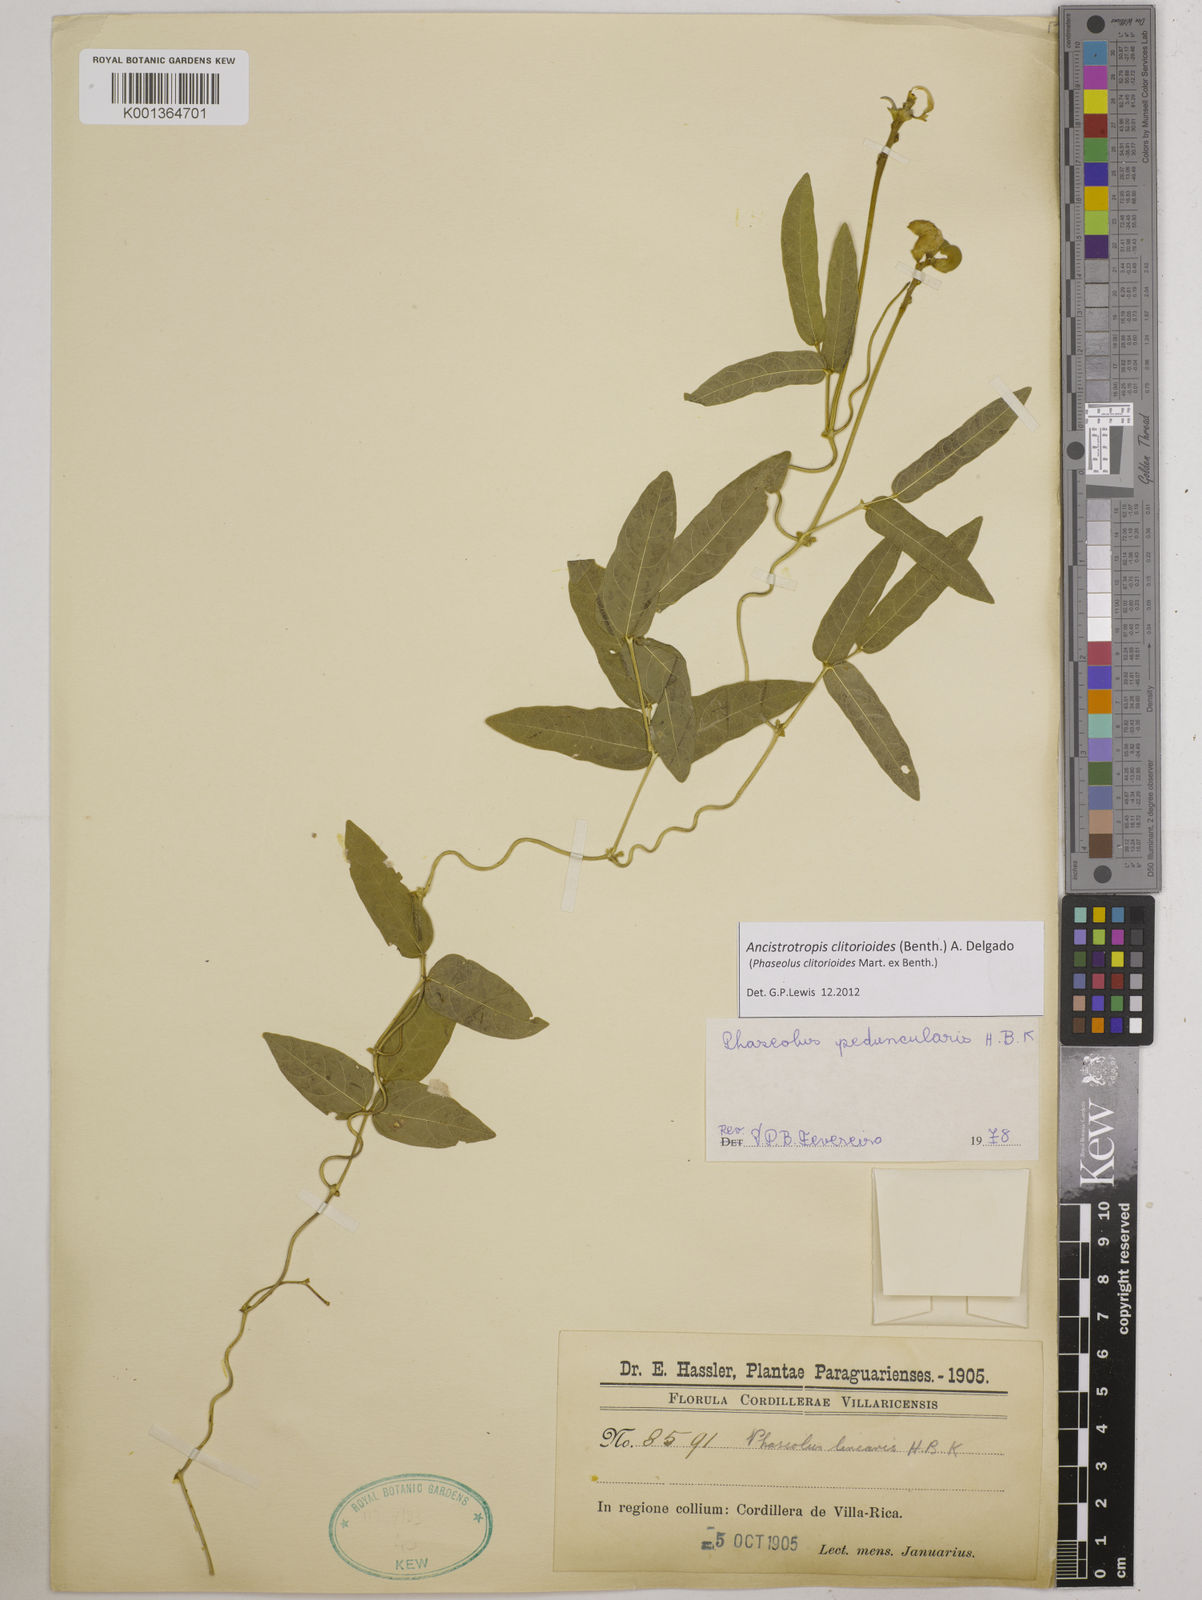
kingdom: Plantae
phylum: Tracheophyta
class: Magnoliopsida
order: Fabales
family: Fabaceae
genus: Ancistrotropis
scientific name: Ancistrotropis clitorioides
